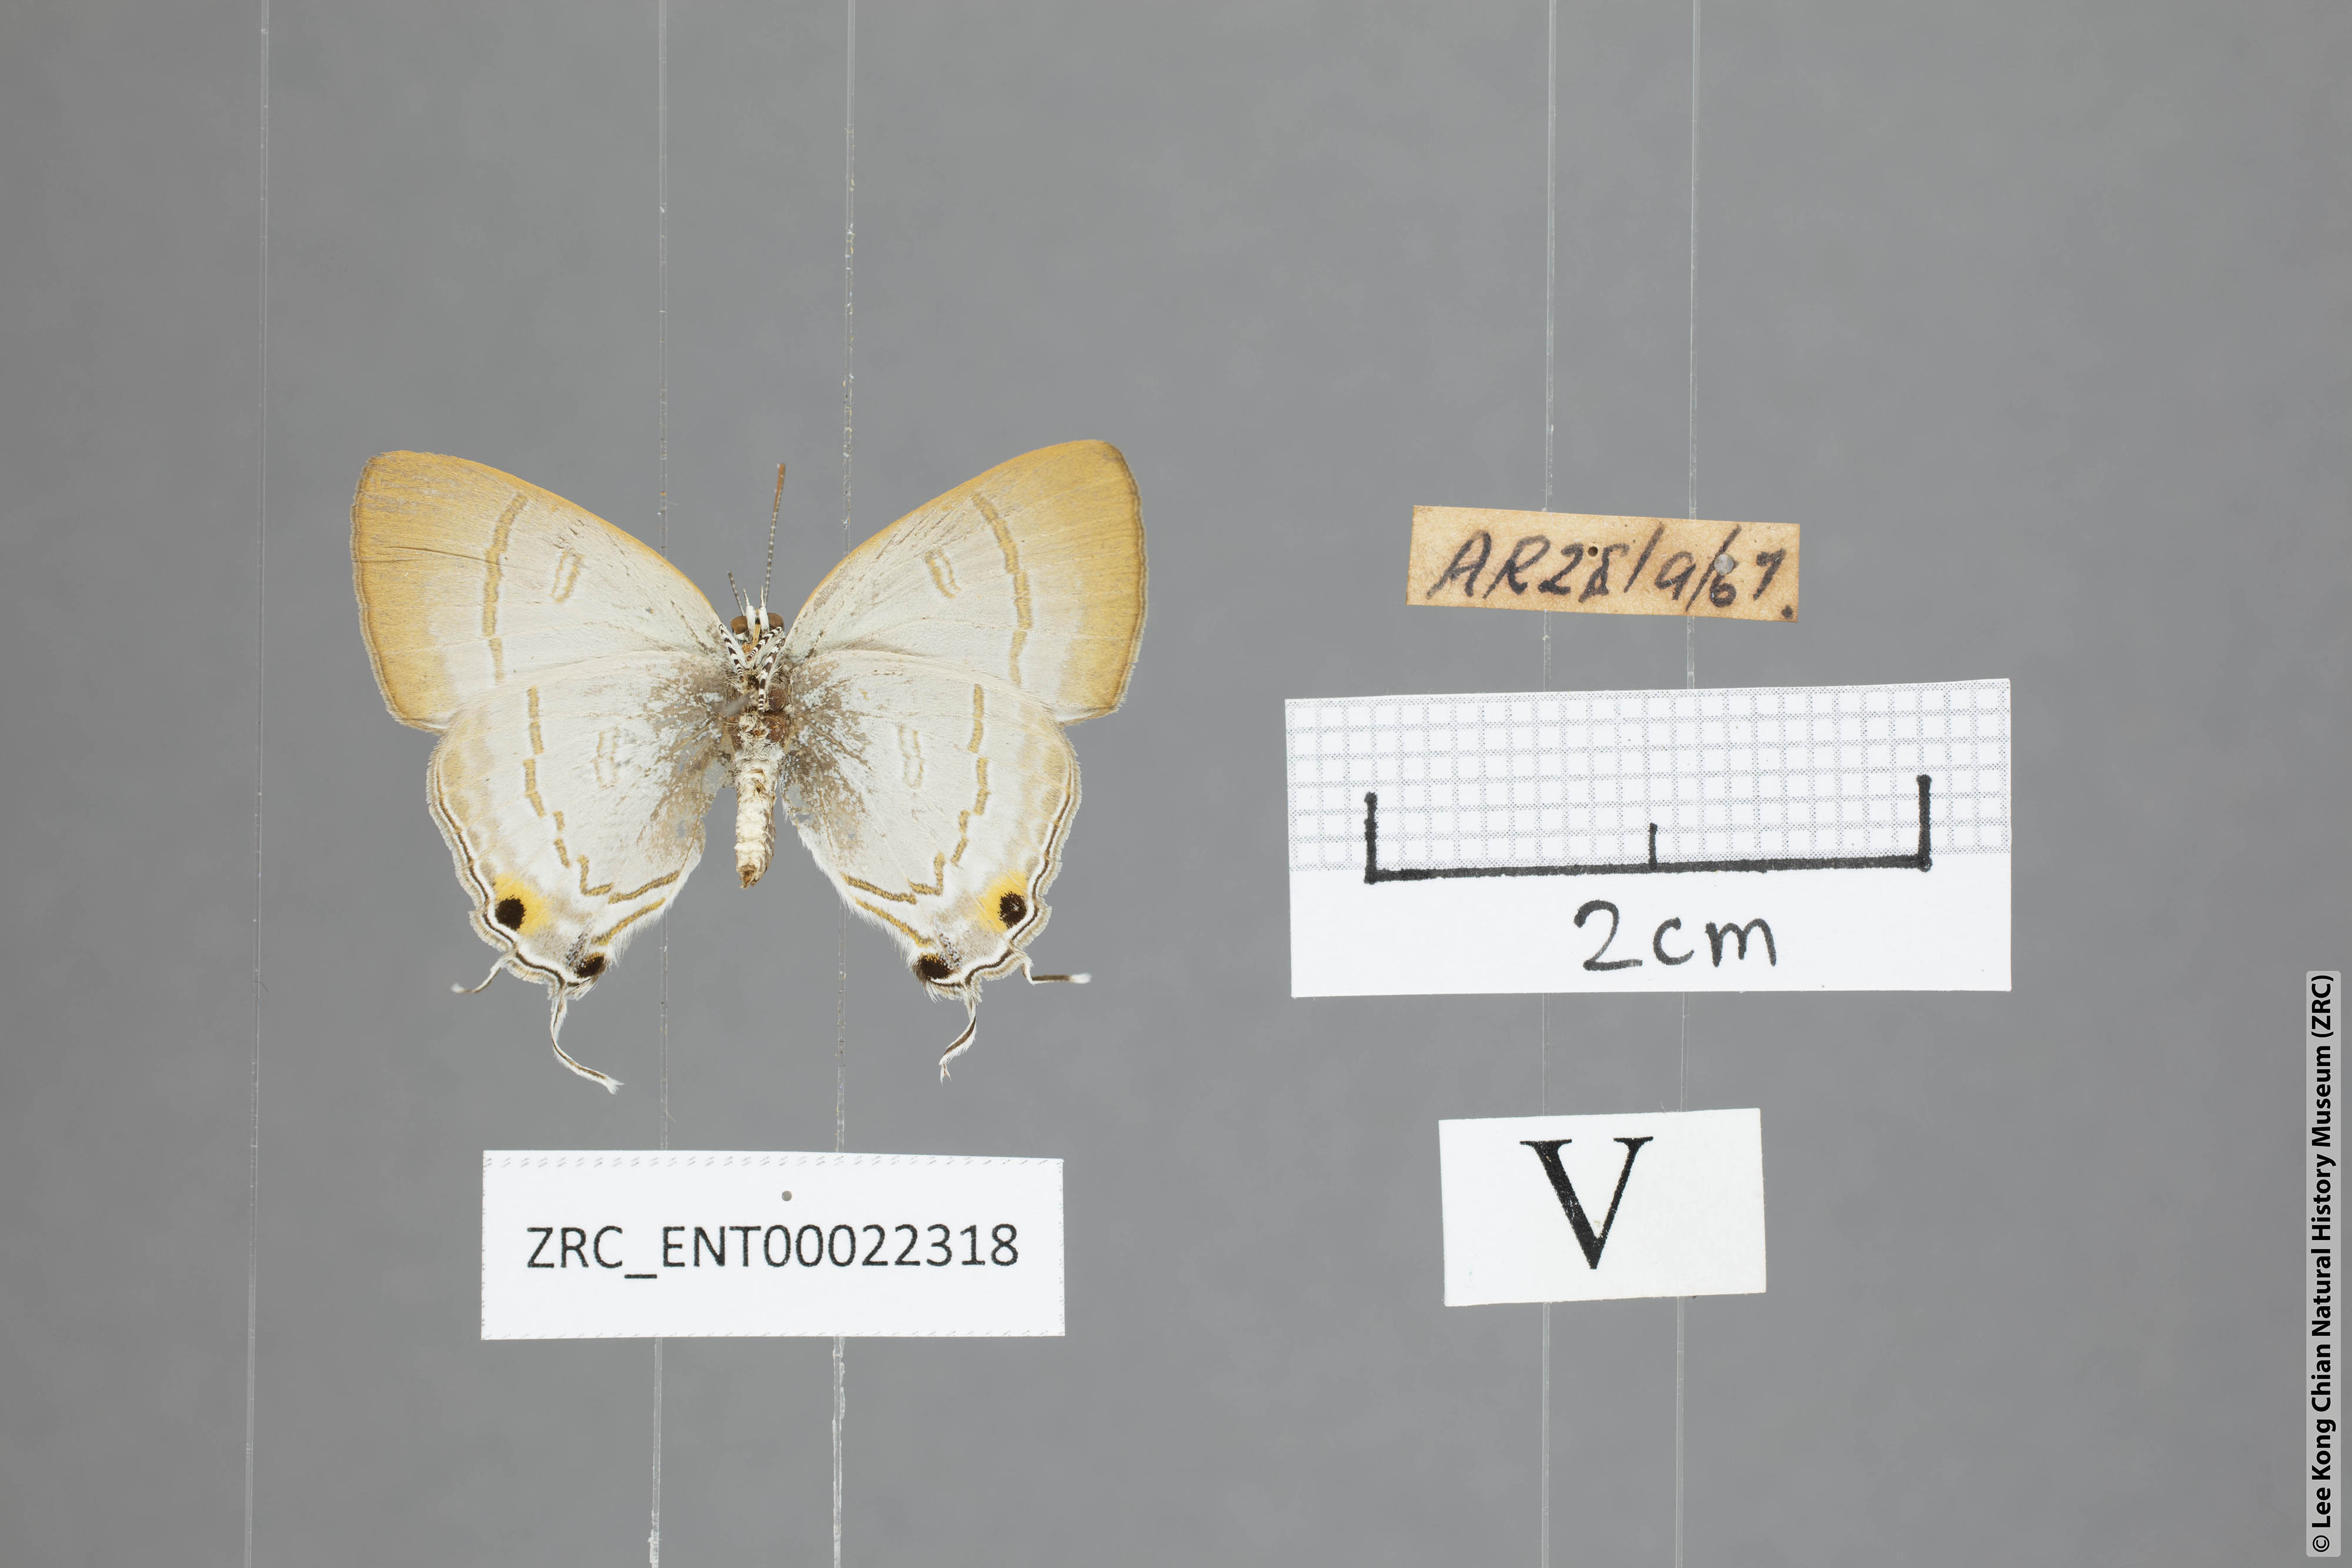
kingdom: Animalia
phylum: Arthropoda
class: Insecta
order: Lepidoptera
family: Lycaenidae
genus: Zeltus
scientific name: Zeltus amasa
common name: Fluffy tit
